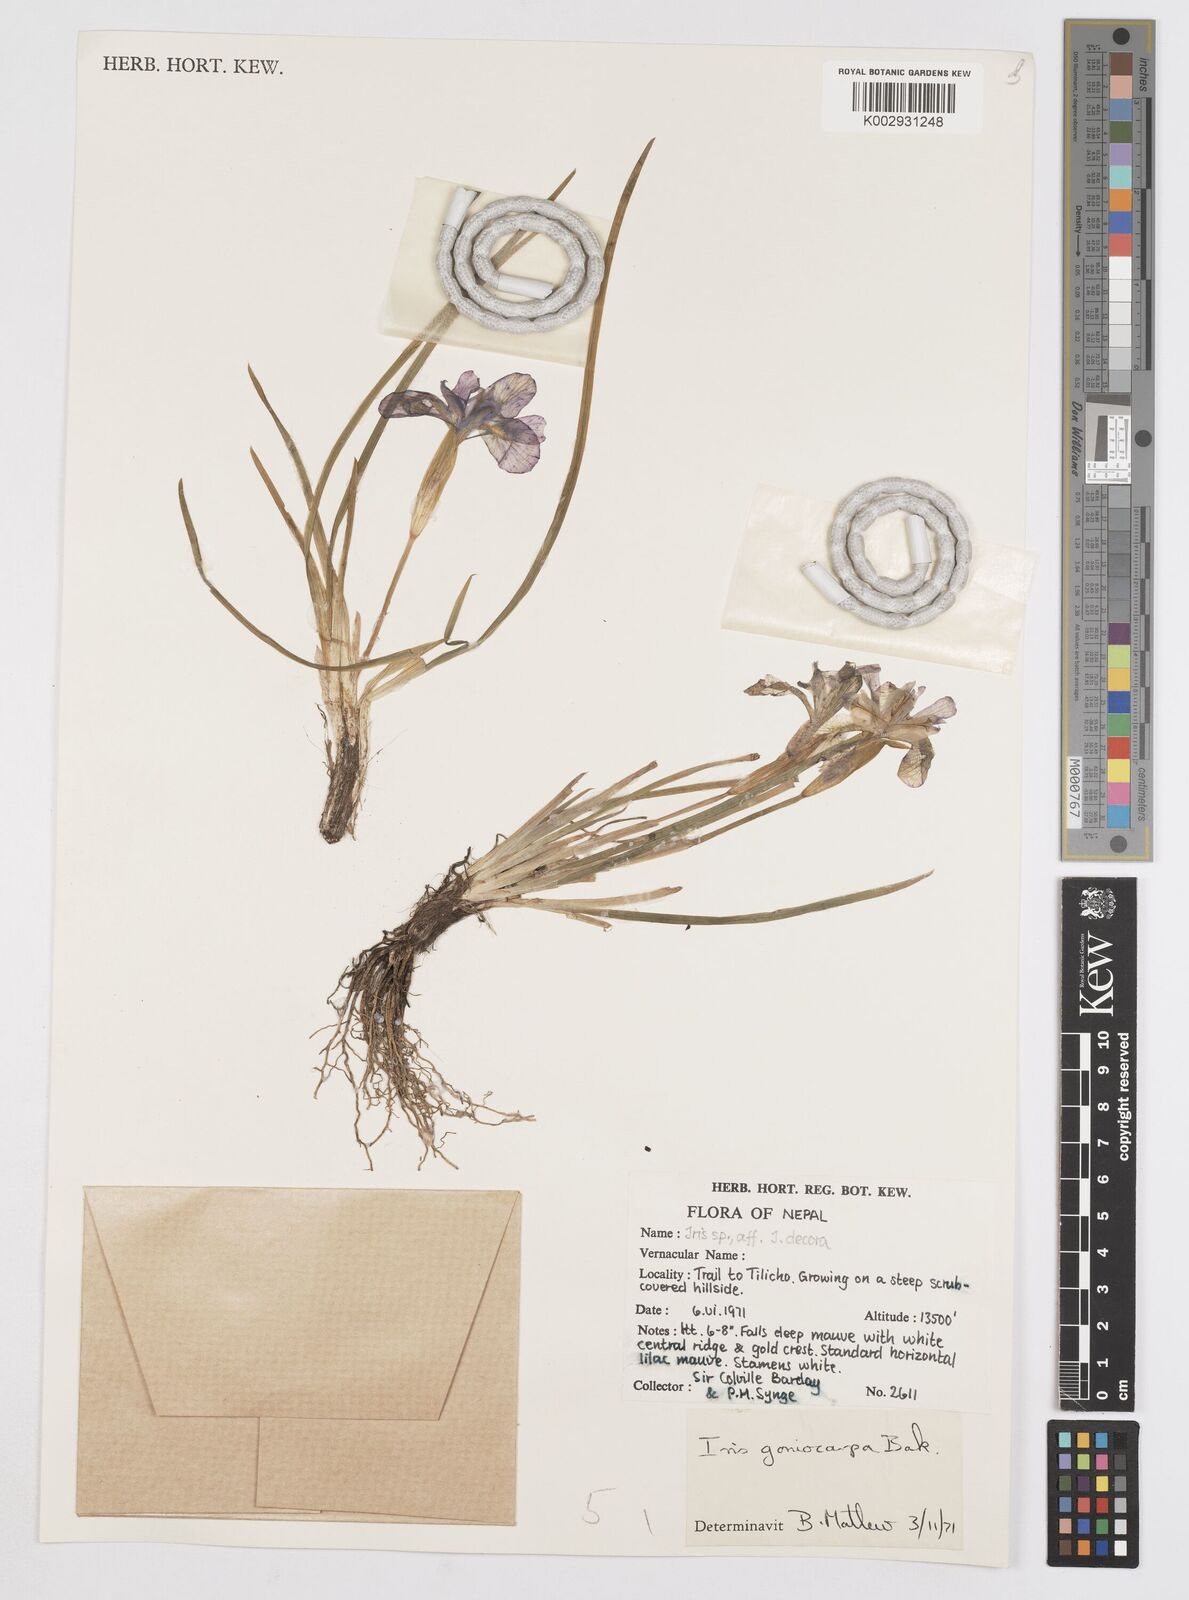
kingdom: Plantae
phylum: Tracheophyta
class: Liliopsida
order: Asparagales
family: Iridaceae
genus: Iris
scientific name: Iris goniocarpa
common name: Angular-fruit iris
